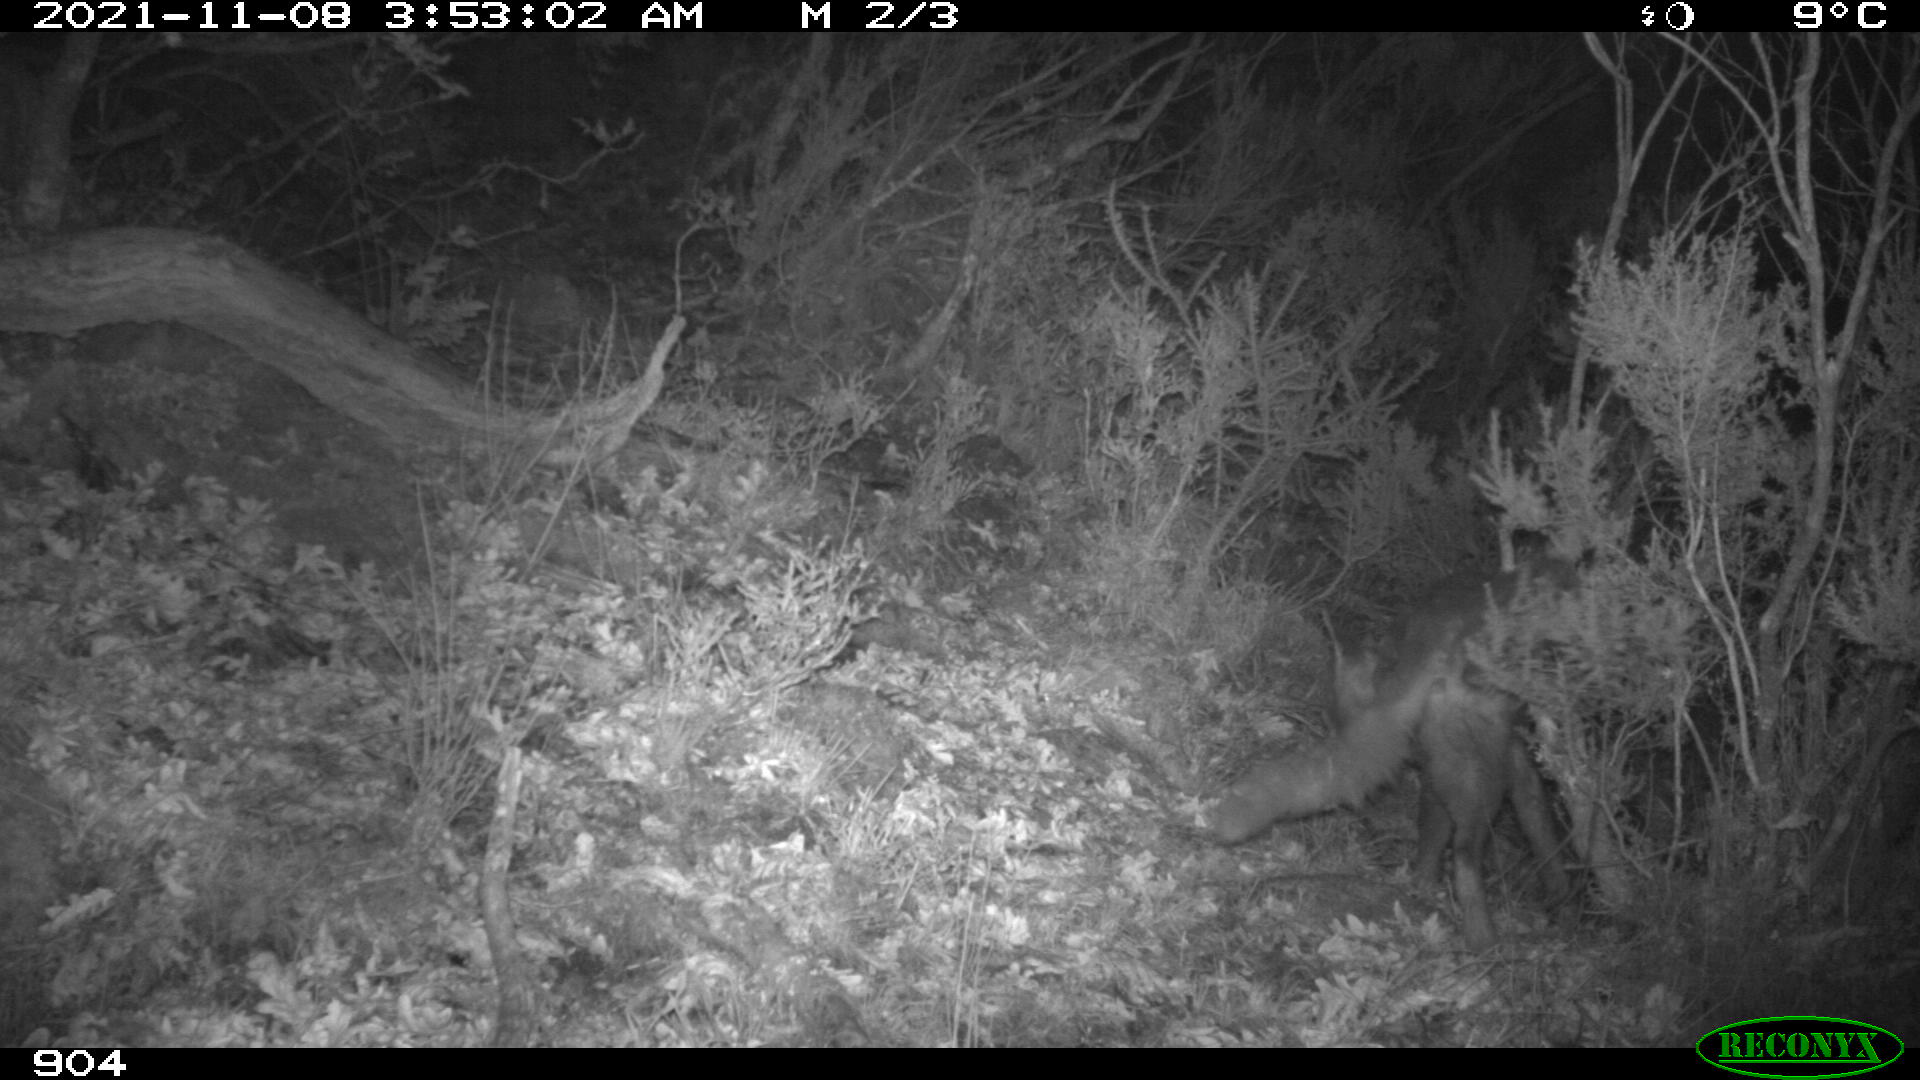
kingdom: Animalia
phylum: Chordata
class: Mammalia
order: Carnivora
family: Canidae
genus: Vulpes
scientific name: Vulpes vulpes
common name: Red fox
